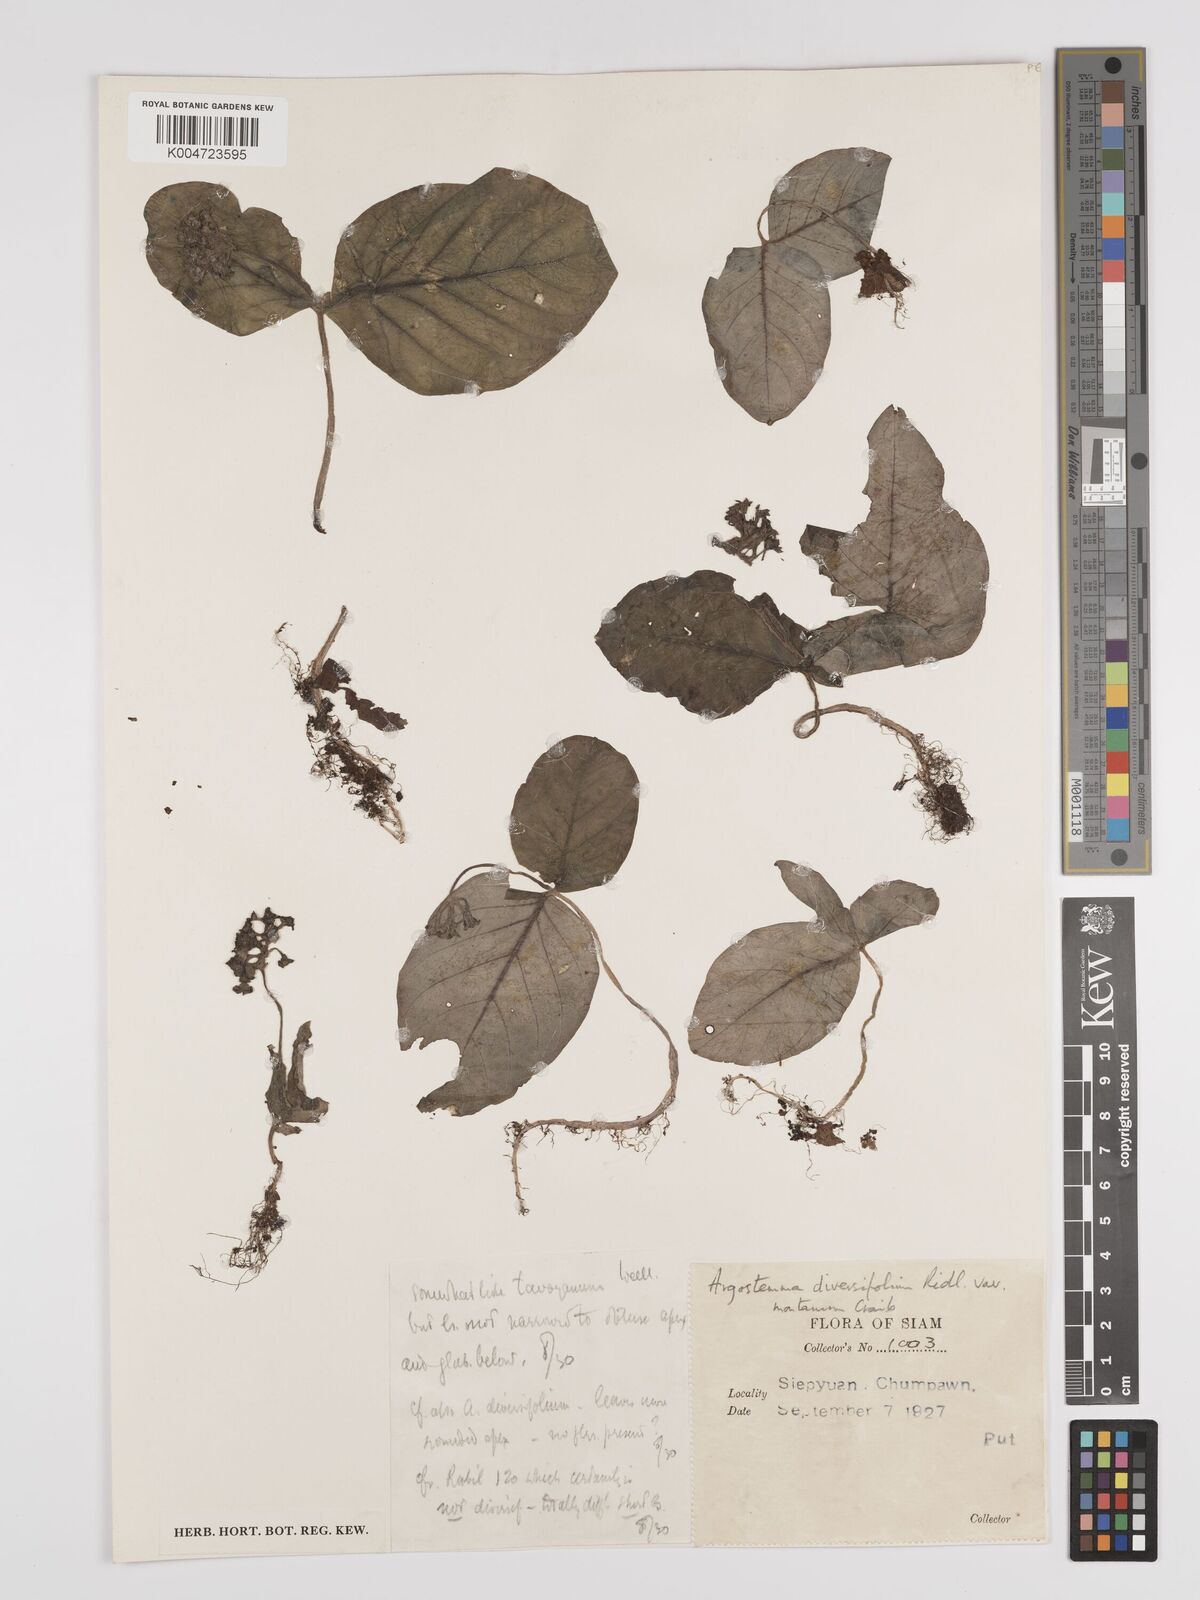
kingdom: Plantae
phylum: Tracheophyta
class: Magnoliopsida
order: Gentianales
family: Rubiaceae
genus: Argostemma
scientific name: Argostemma diversifolium
